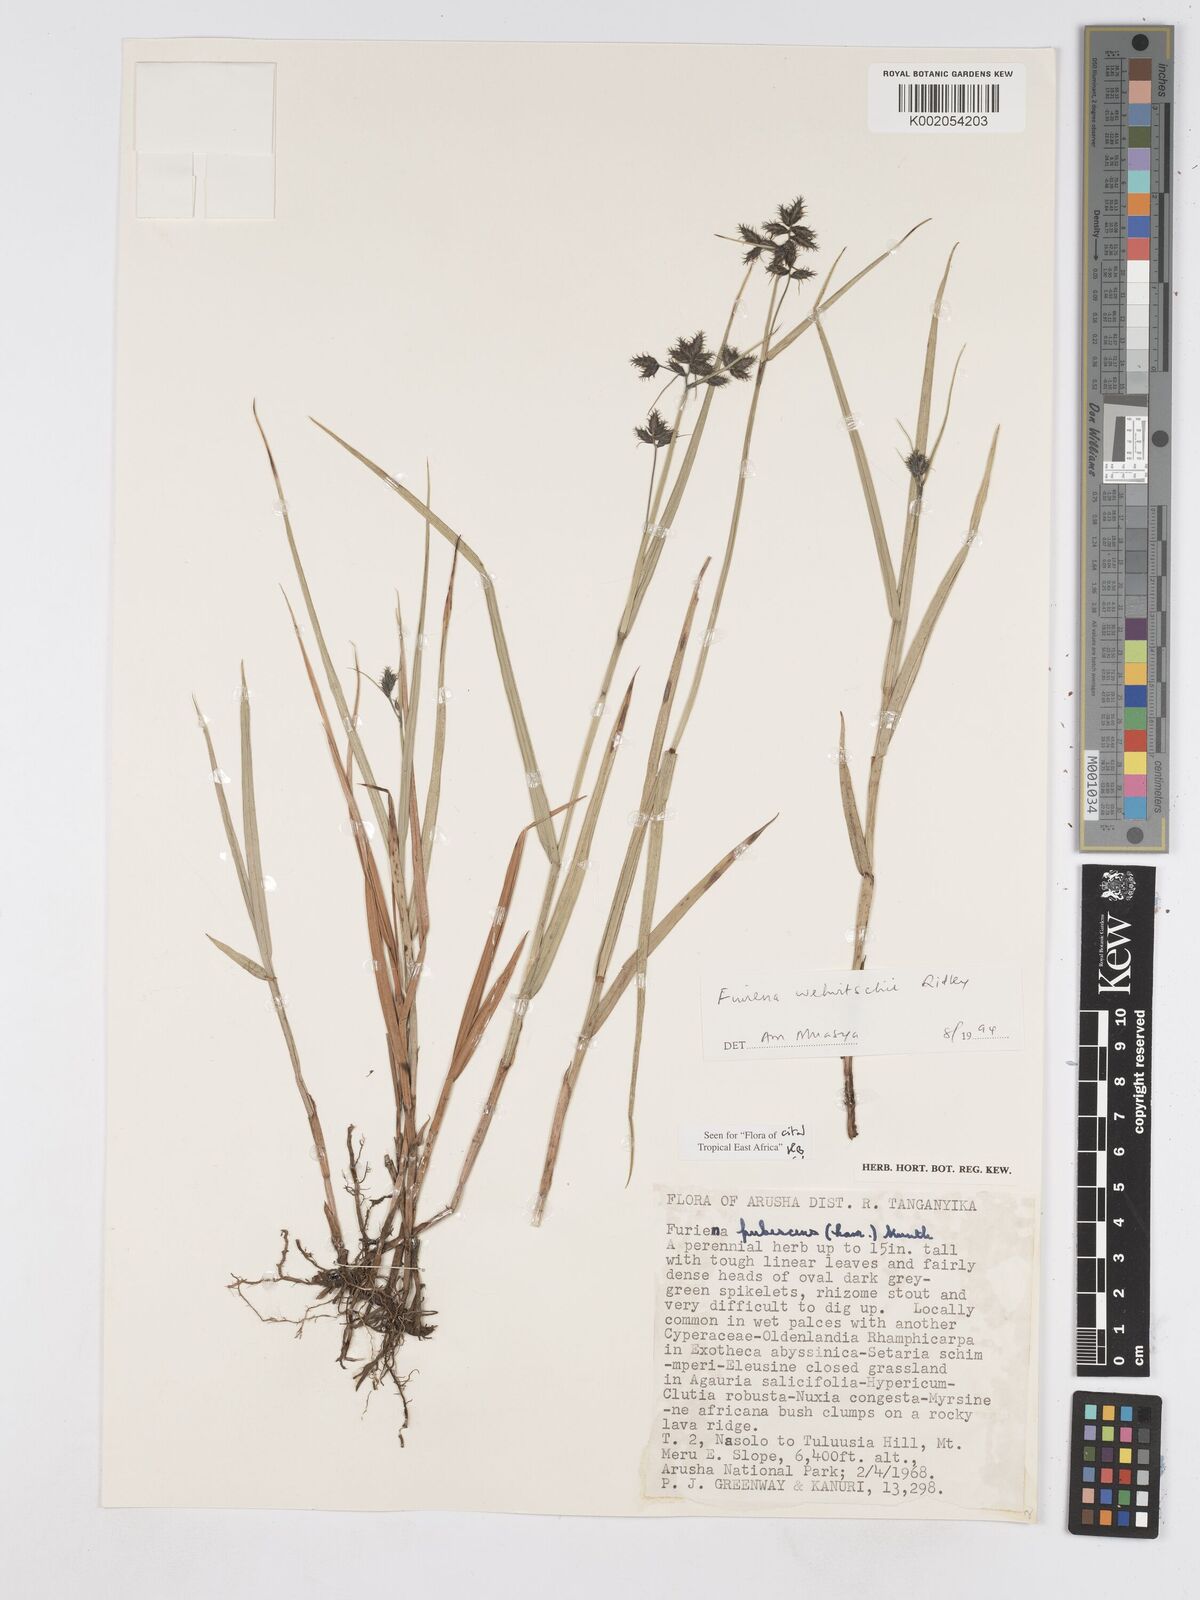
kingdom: Plantae
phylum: Tracheophyta
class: Liliopsida
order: Poales
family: Cyperaceae
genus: Fuirena
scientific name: Fuirena welwitschii
